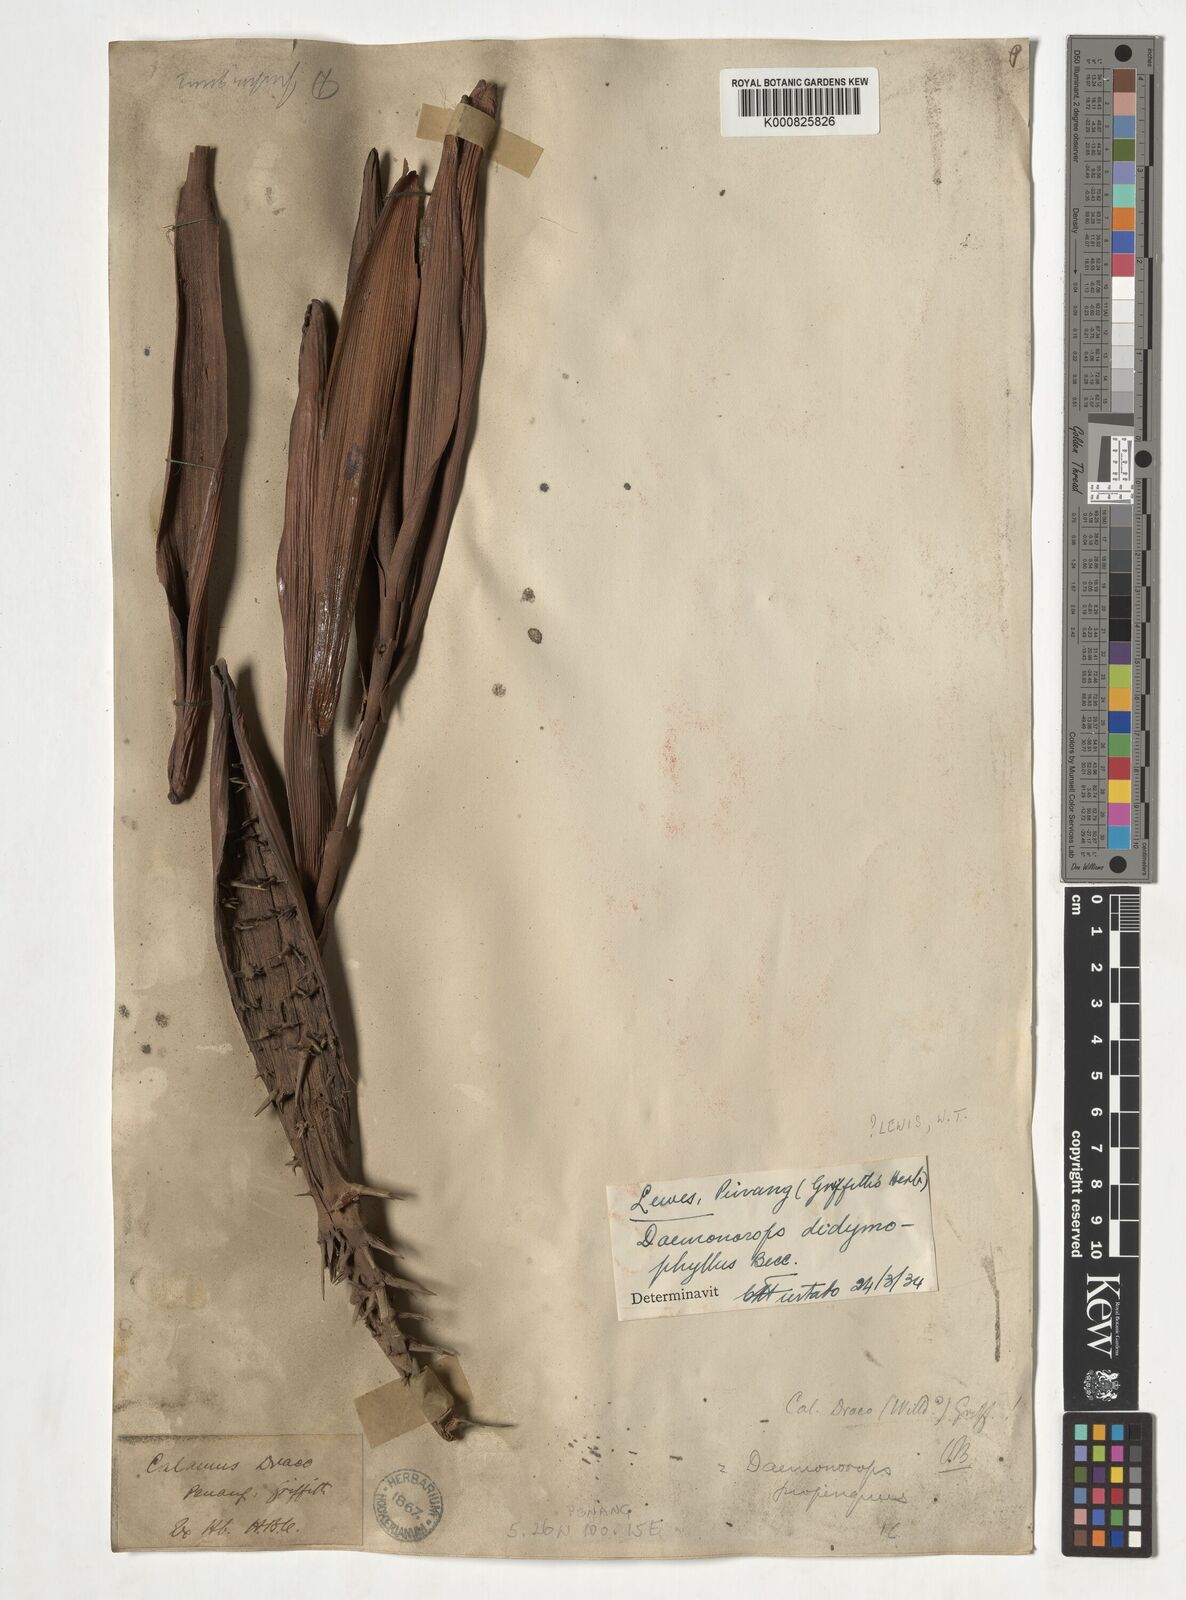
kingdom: Plantae
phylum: Tracheophyta
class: Liliopsida
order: Arecales
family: Arecaceae
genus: Calamus
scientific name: Calamus gracilipes
